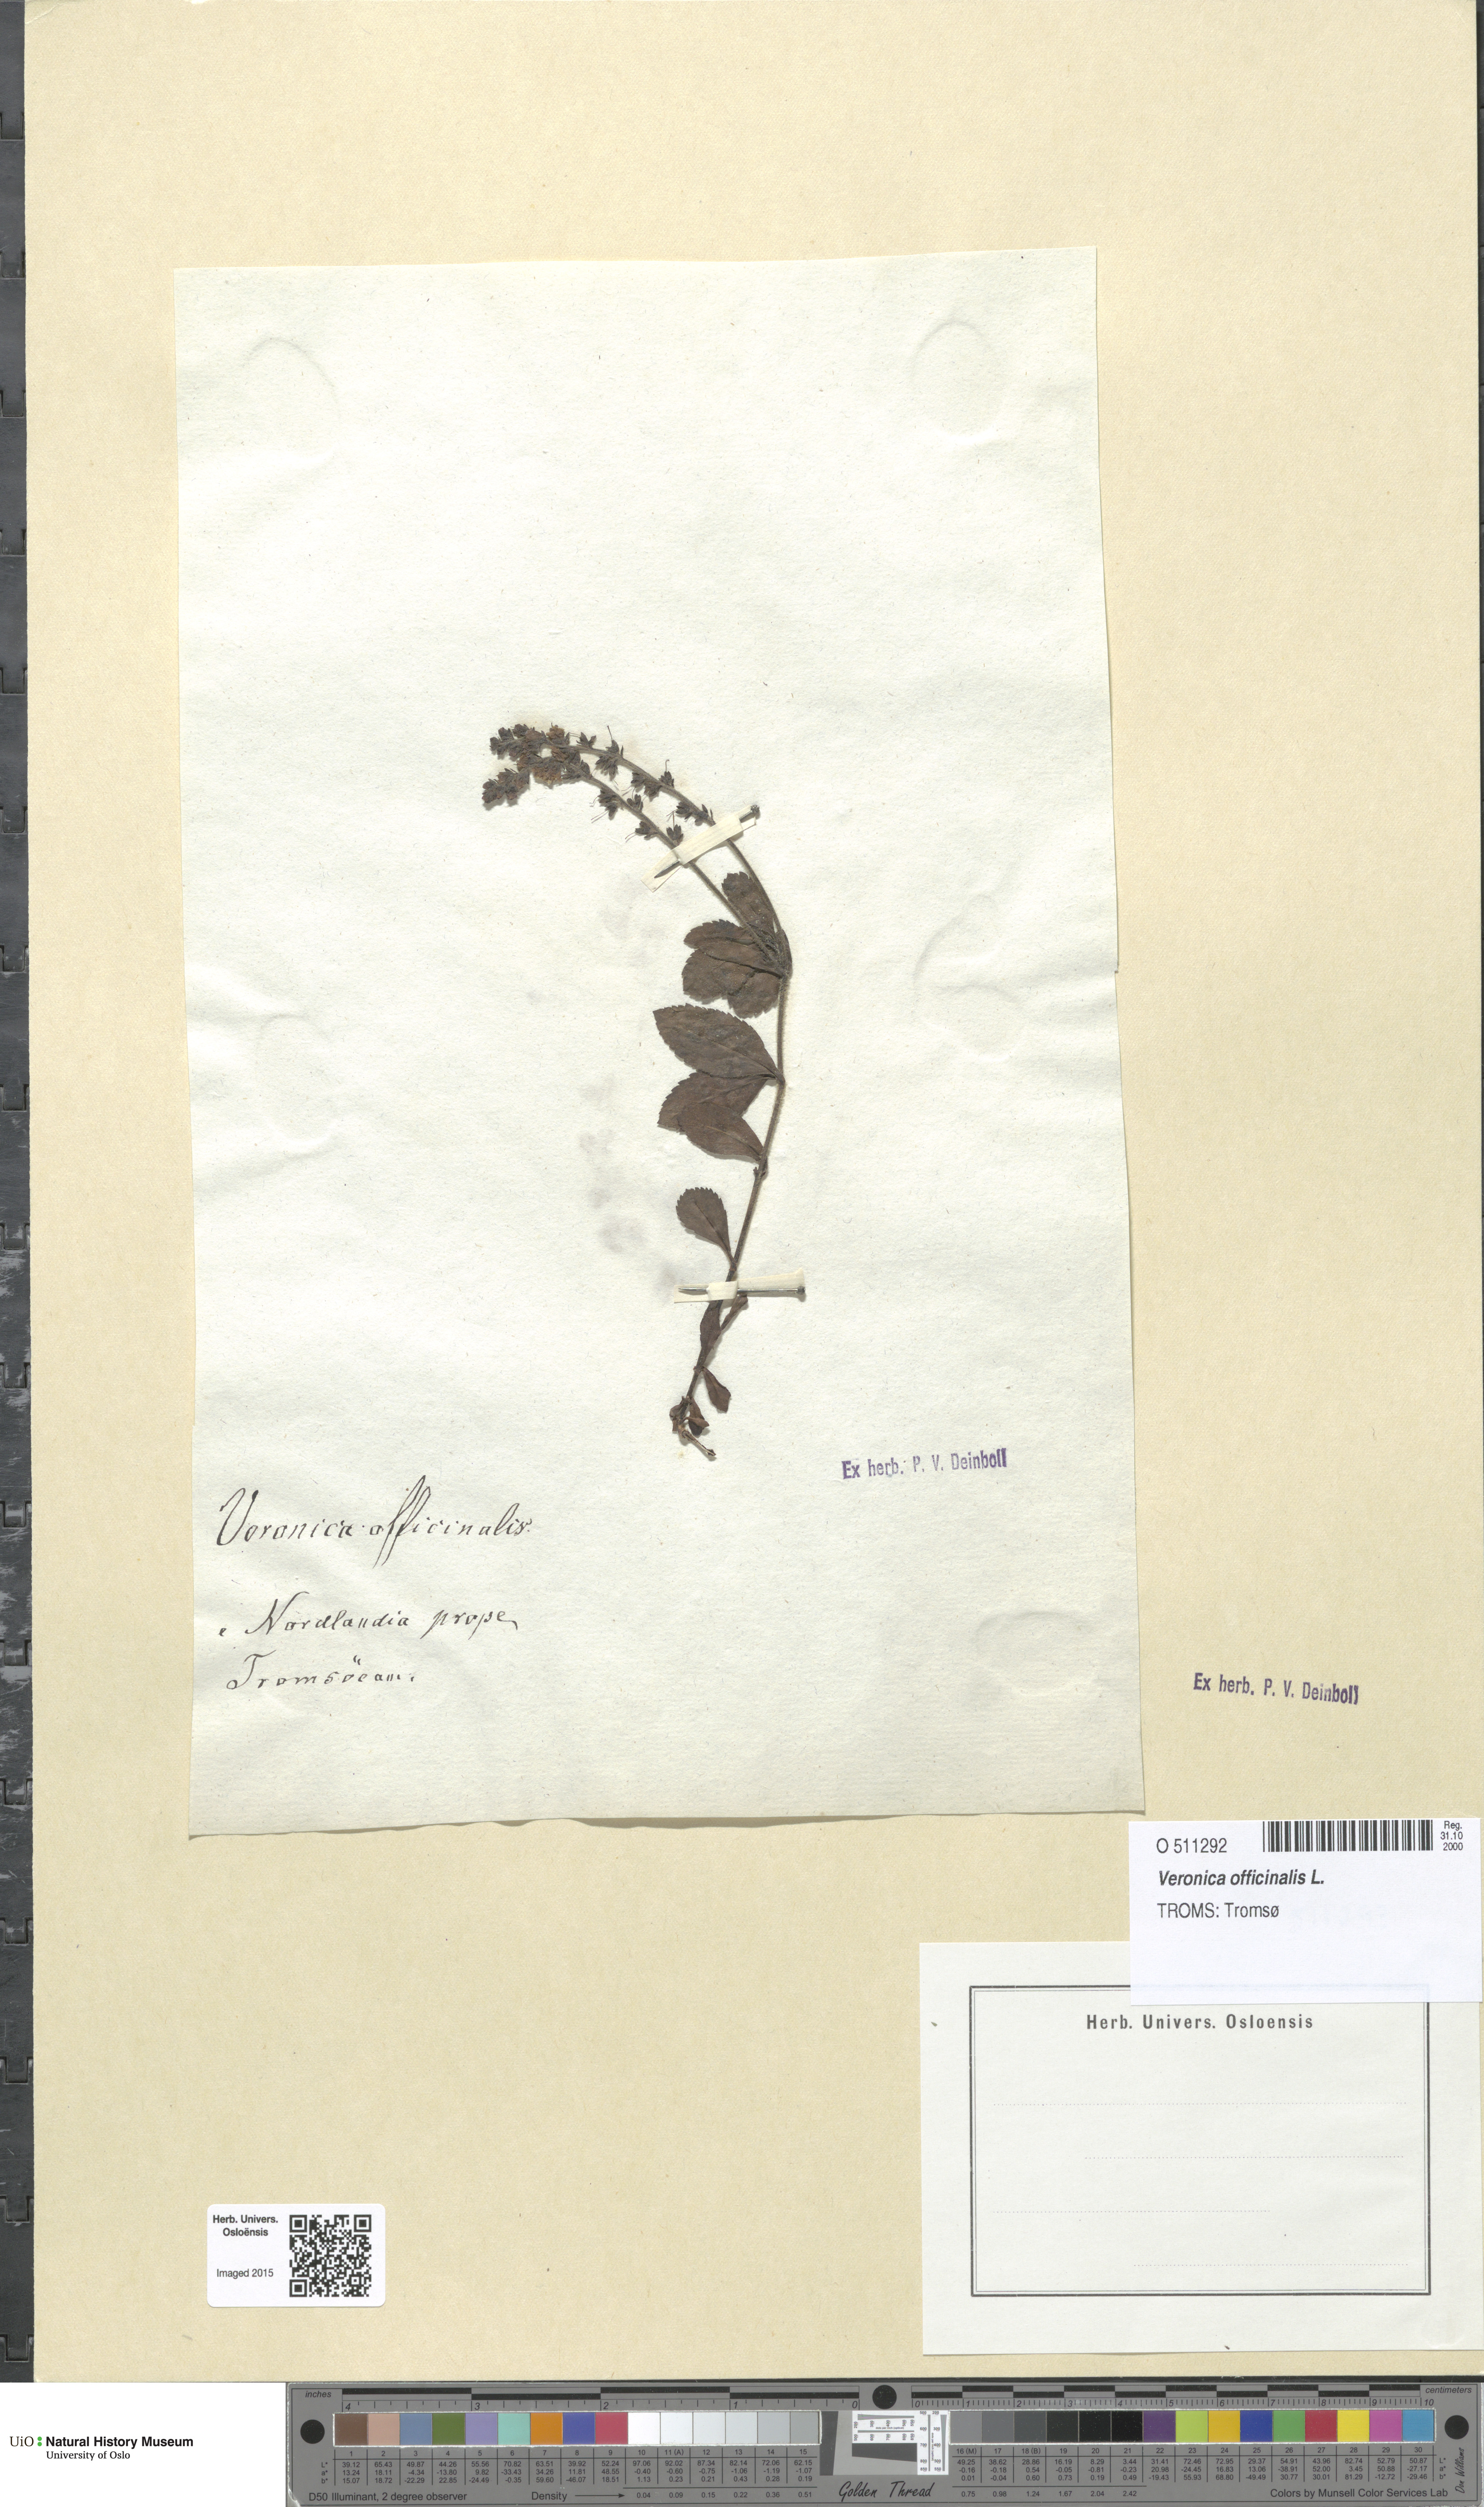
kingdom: Plantae
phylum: Tracheophyta
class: Magnoliopsida
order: Lamiales
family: Plantaginaceae
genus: Veronica
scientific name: Veronica officinalis
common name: Common speedwell
